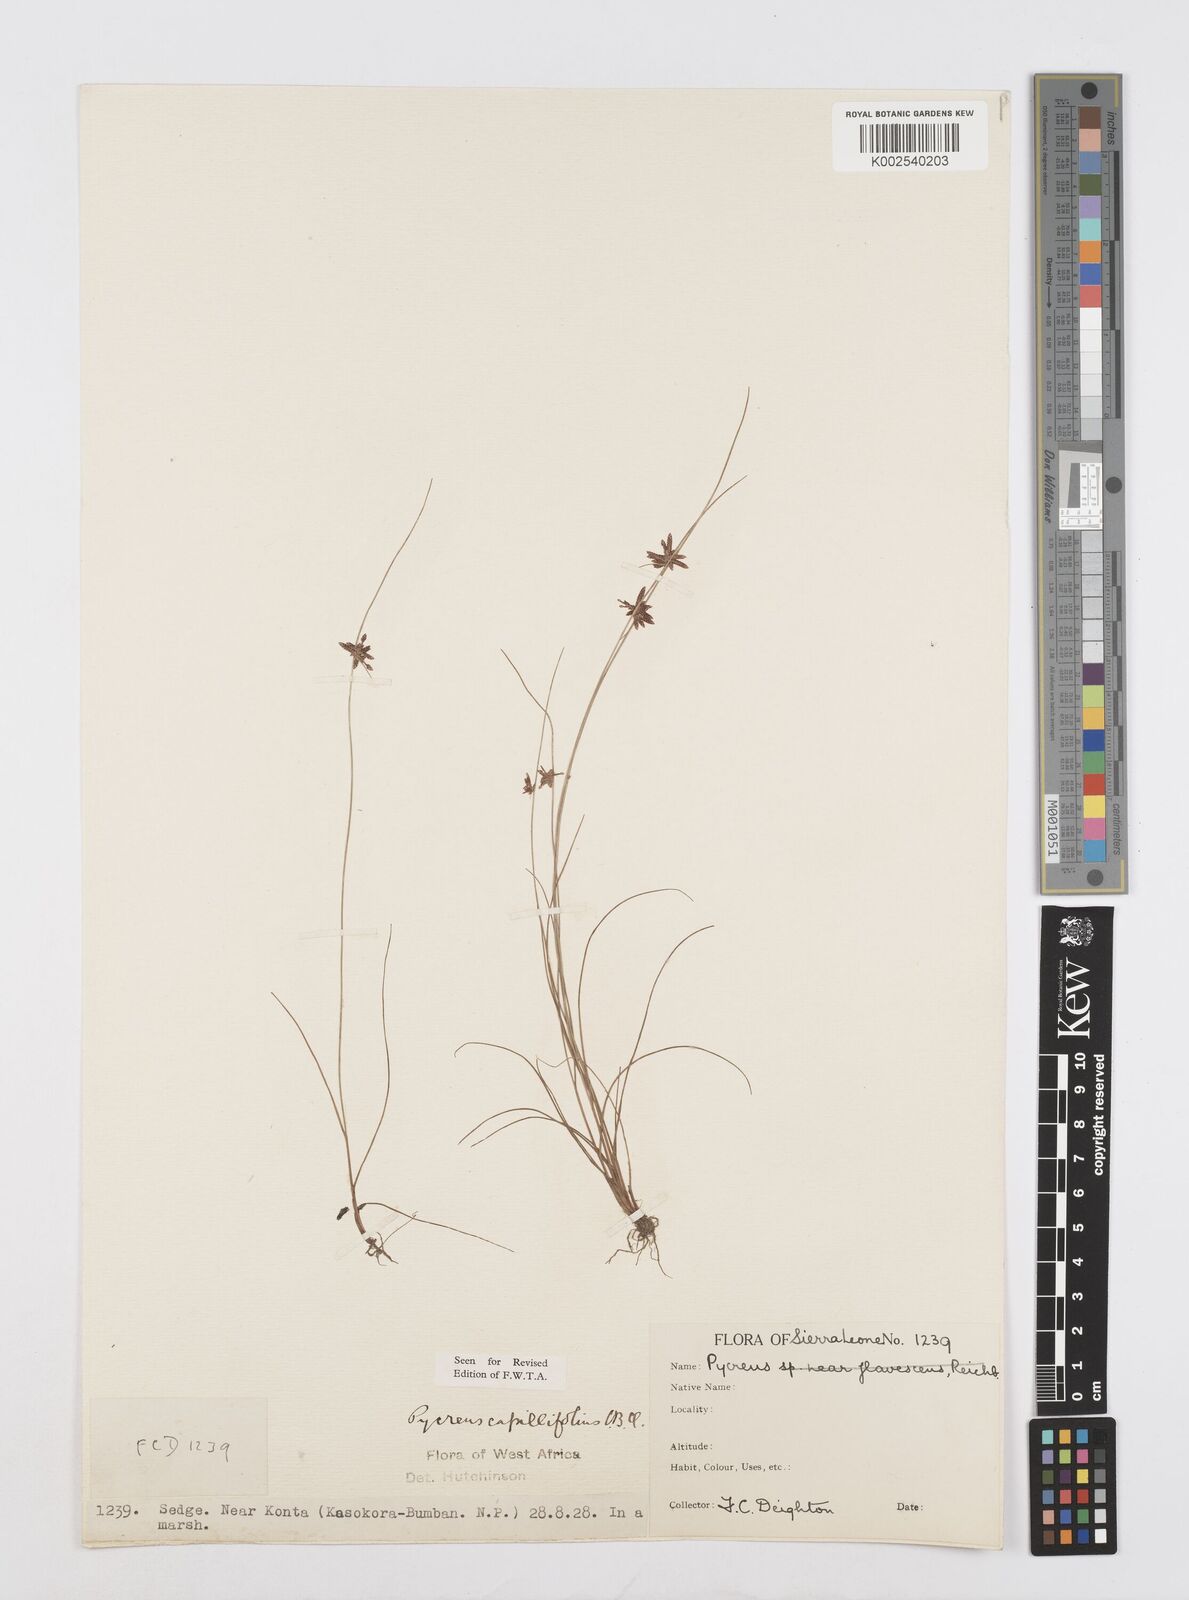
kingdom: Plantae
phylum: Tracheophyta
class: Liliopsida
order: Poales
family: Cyperaceae
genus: Cyperus
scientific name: Cyperus capillifolius
